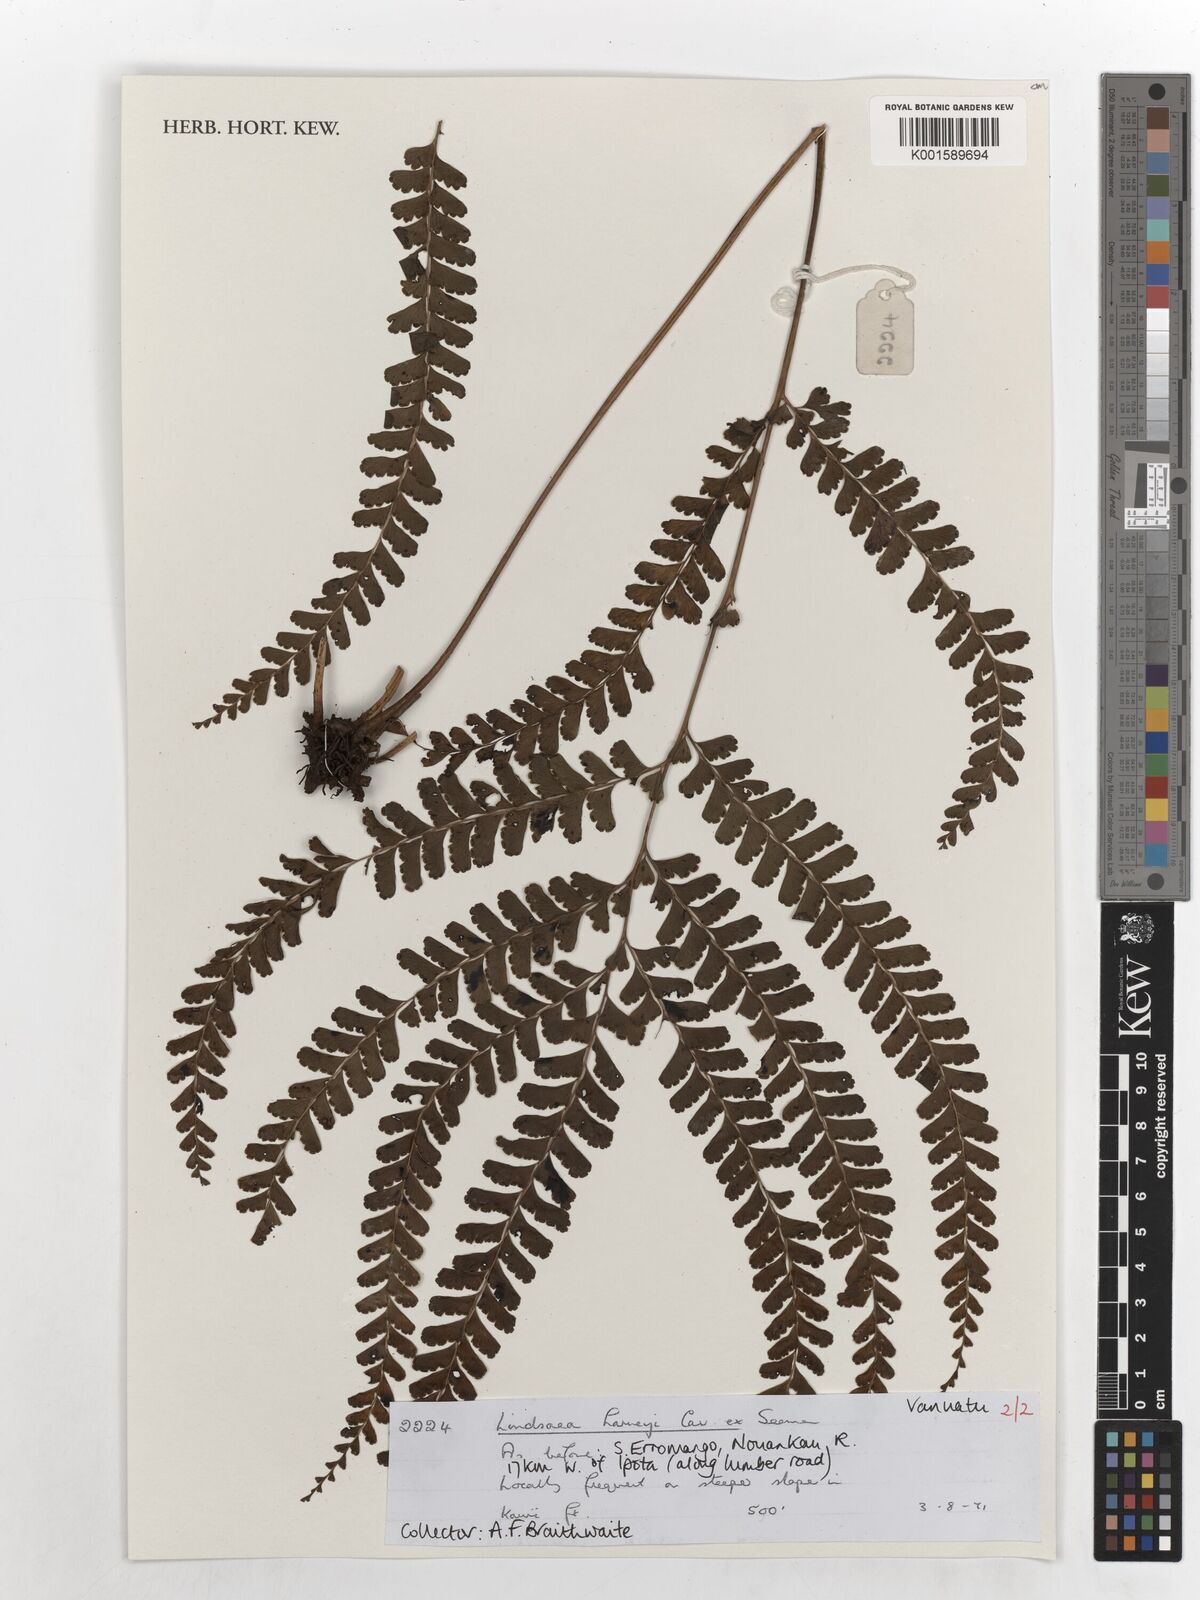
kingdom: Plantae
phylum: Tracheophyta
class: Polypodiopsida
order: Polypodiales
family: Lindsaeaceae
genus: Lindsaea
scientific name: Lindsaea harveyi
